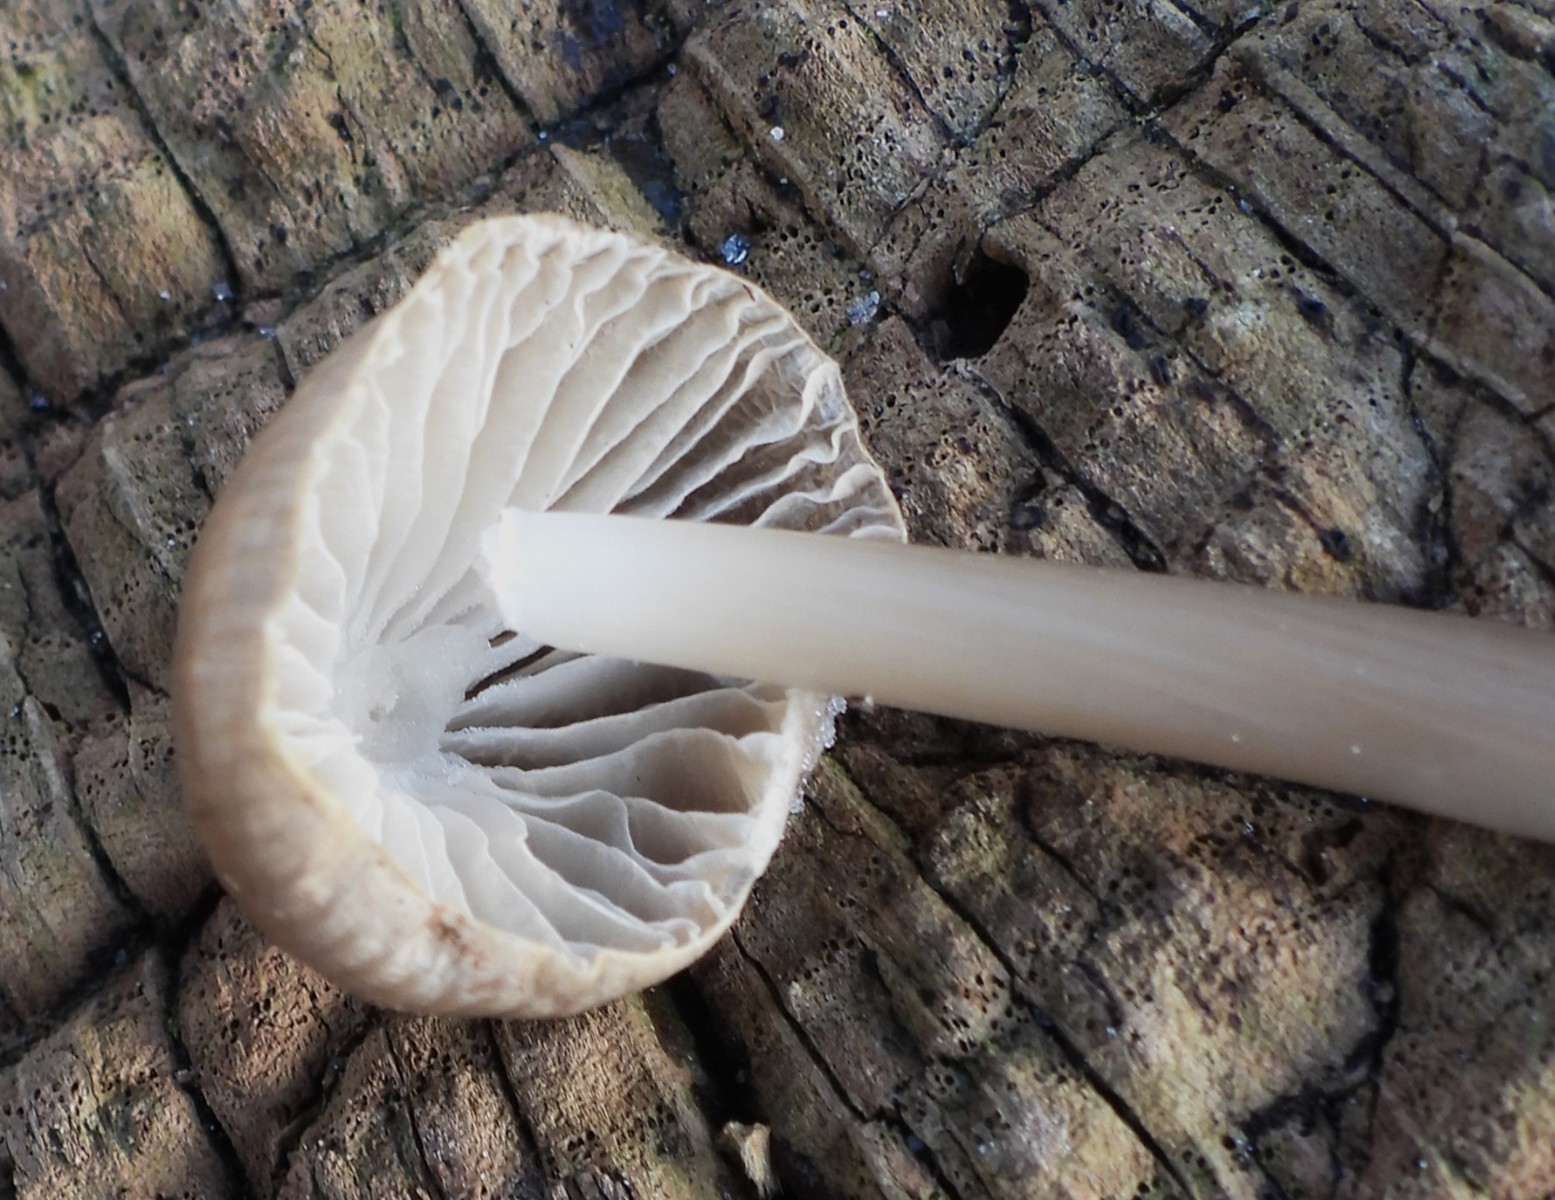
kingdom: Fungi
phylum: Basidiomycota
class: Agaricomycetes
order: Agaricales
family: Mycenaceae
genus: Mycena
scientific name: Mycena galericulata
